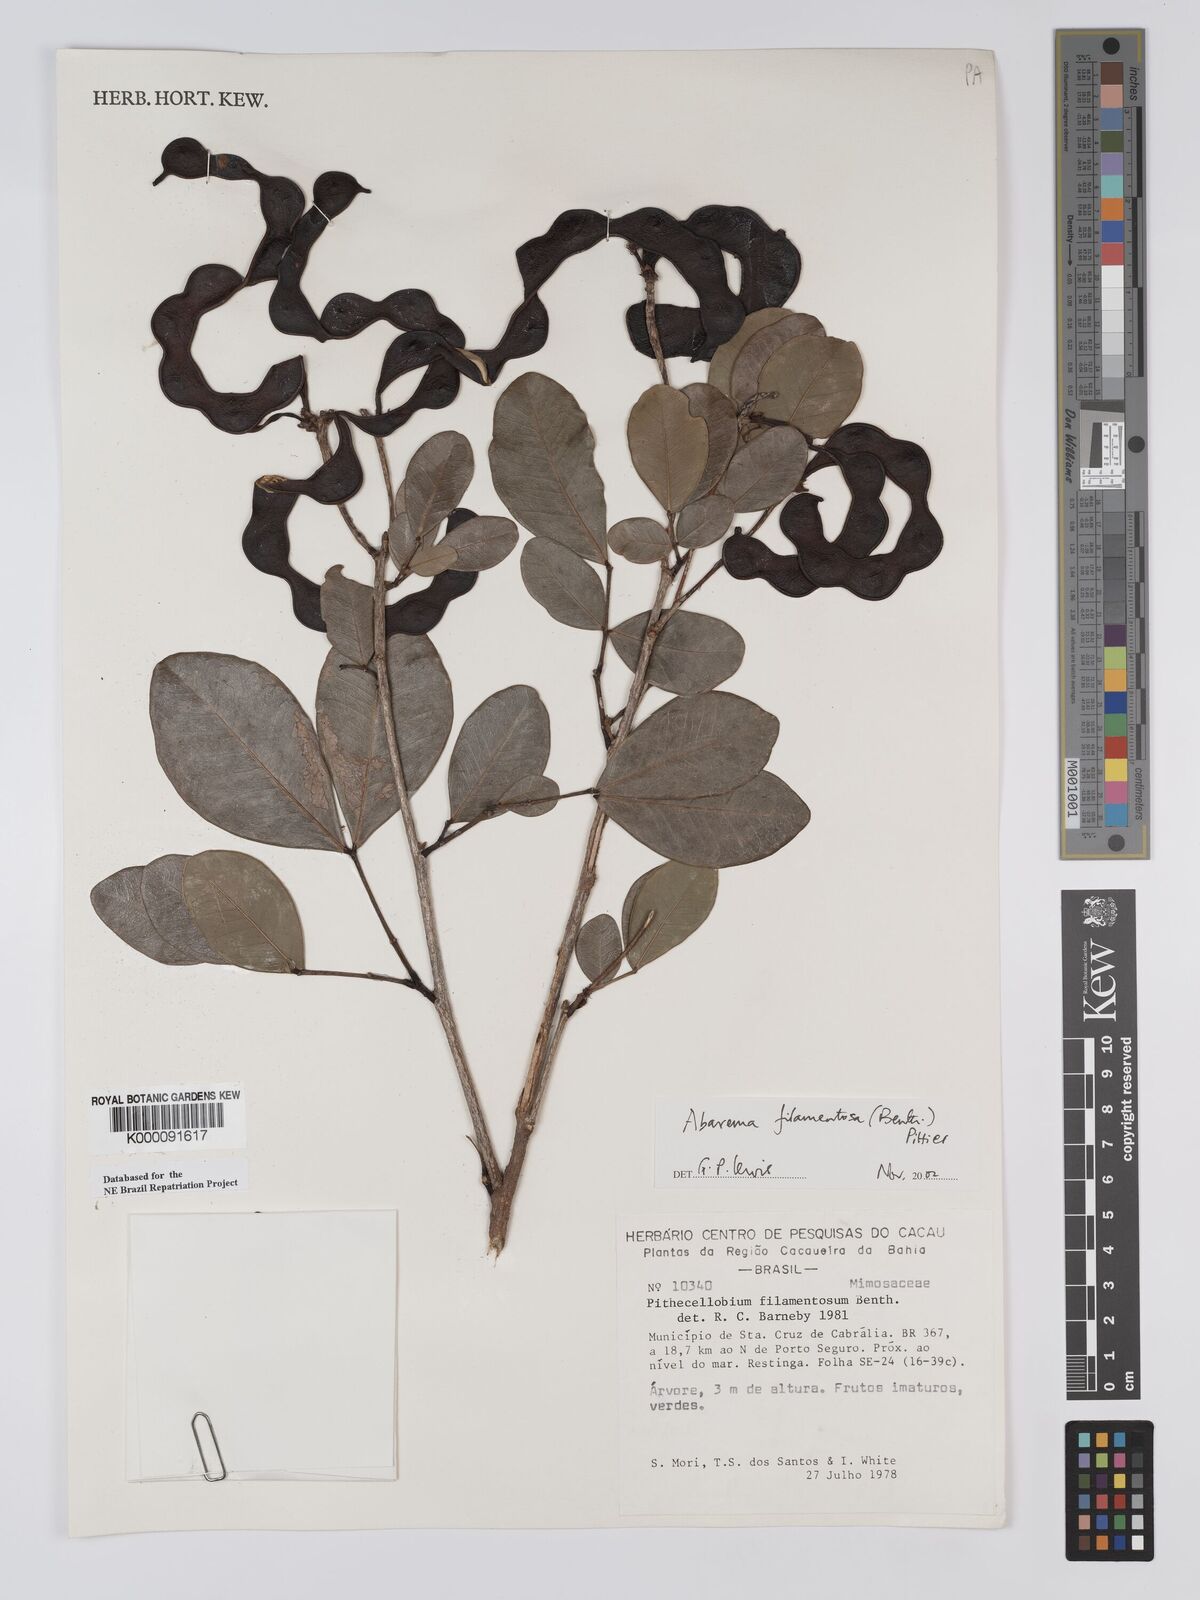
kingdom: Plantae
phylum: Tracheophyta
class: Magnoliopsida
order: Fabales
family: Fabaceae
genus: Jupunba
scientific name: Jupunba filamentosa
